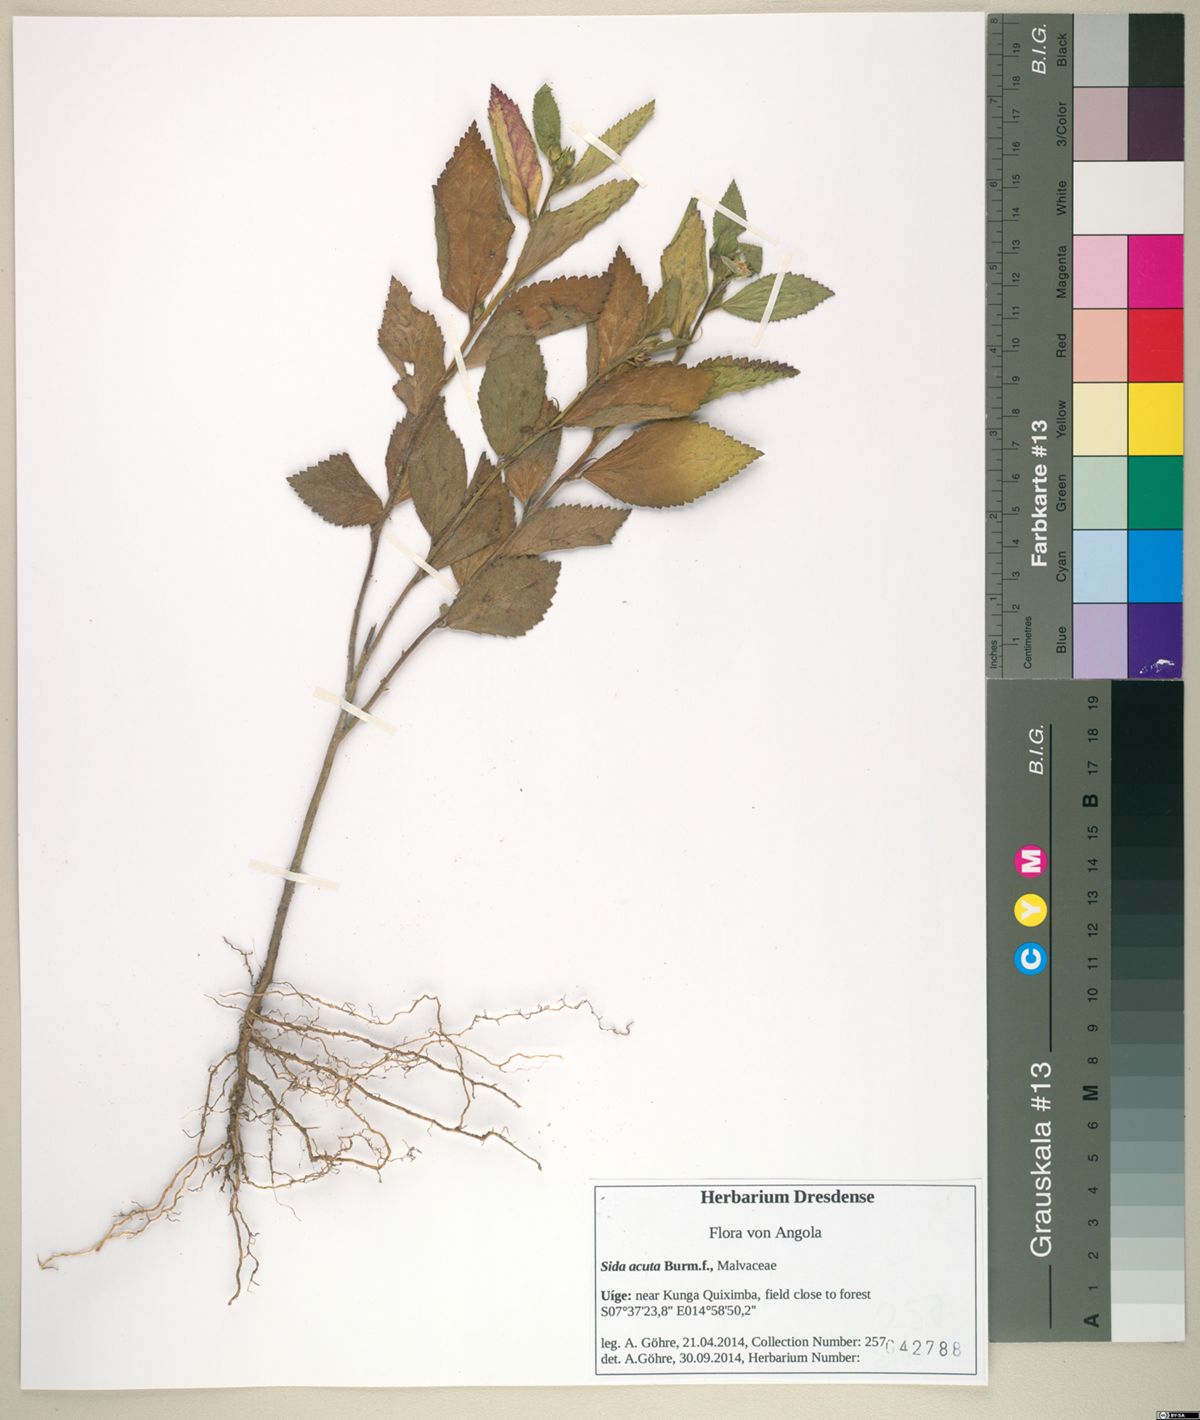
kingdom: Plantae
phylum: Tracheophyta
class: Magnoliopsida
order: Malvales
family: Malvaceae
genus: Sida
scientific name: Sida acuta
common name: Common wireweed
